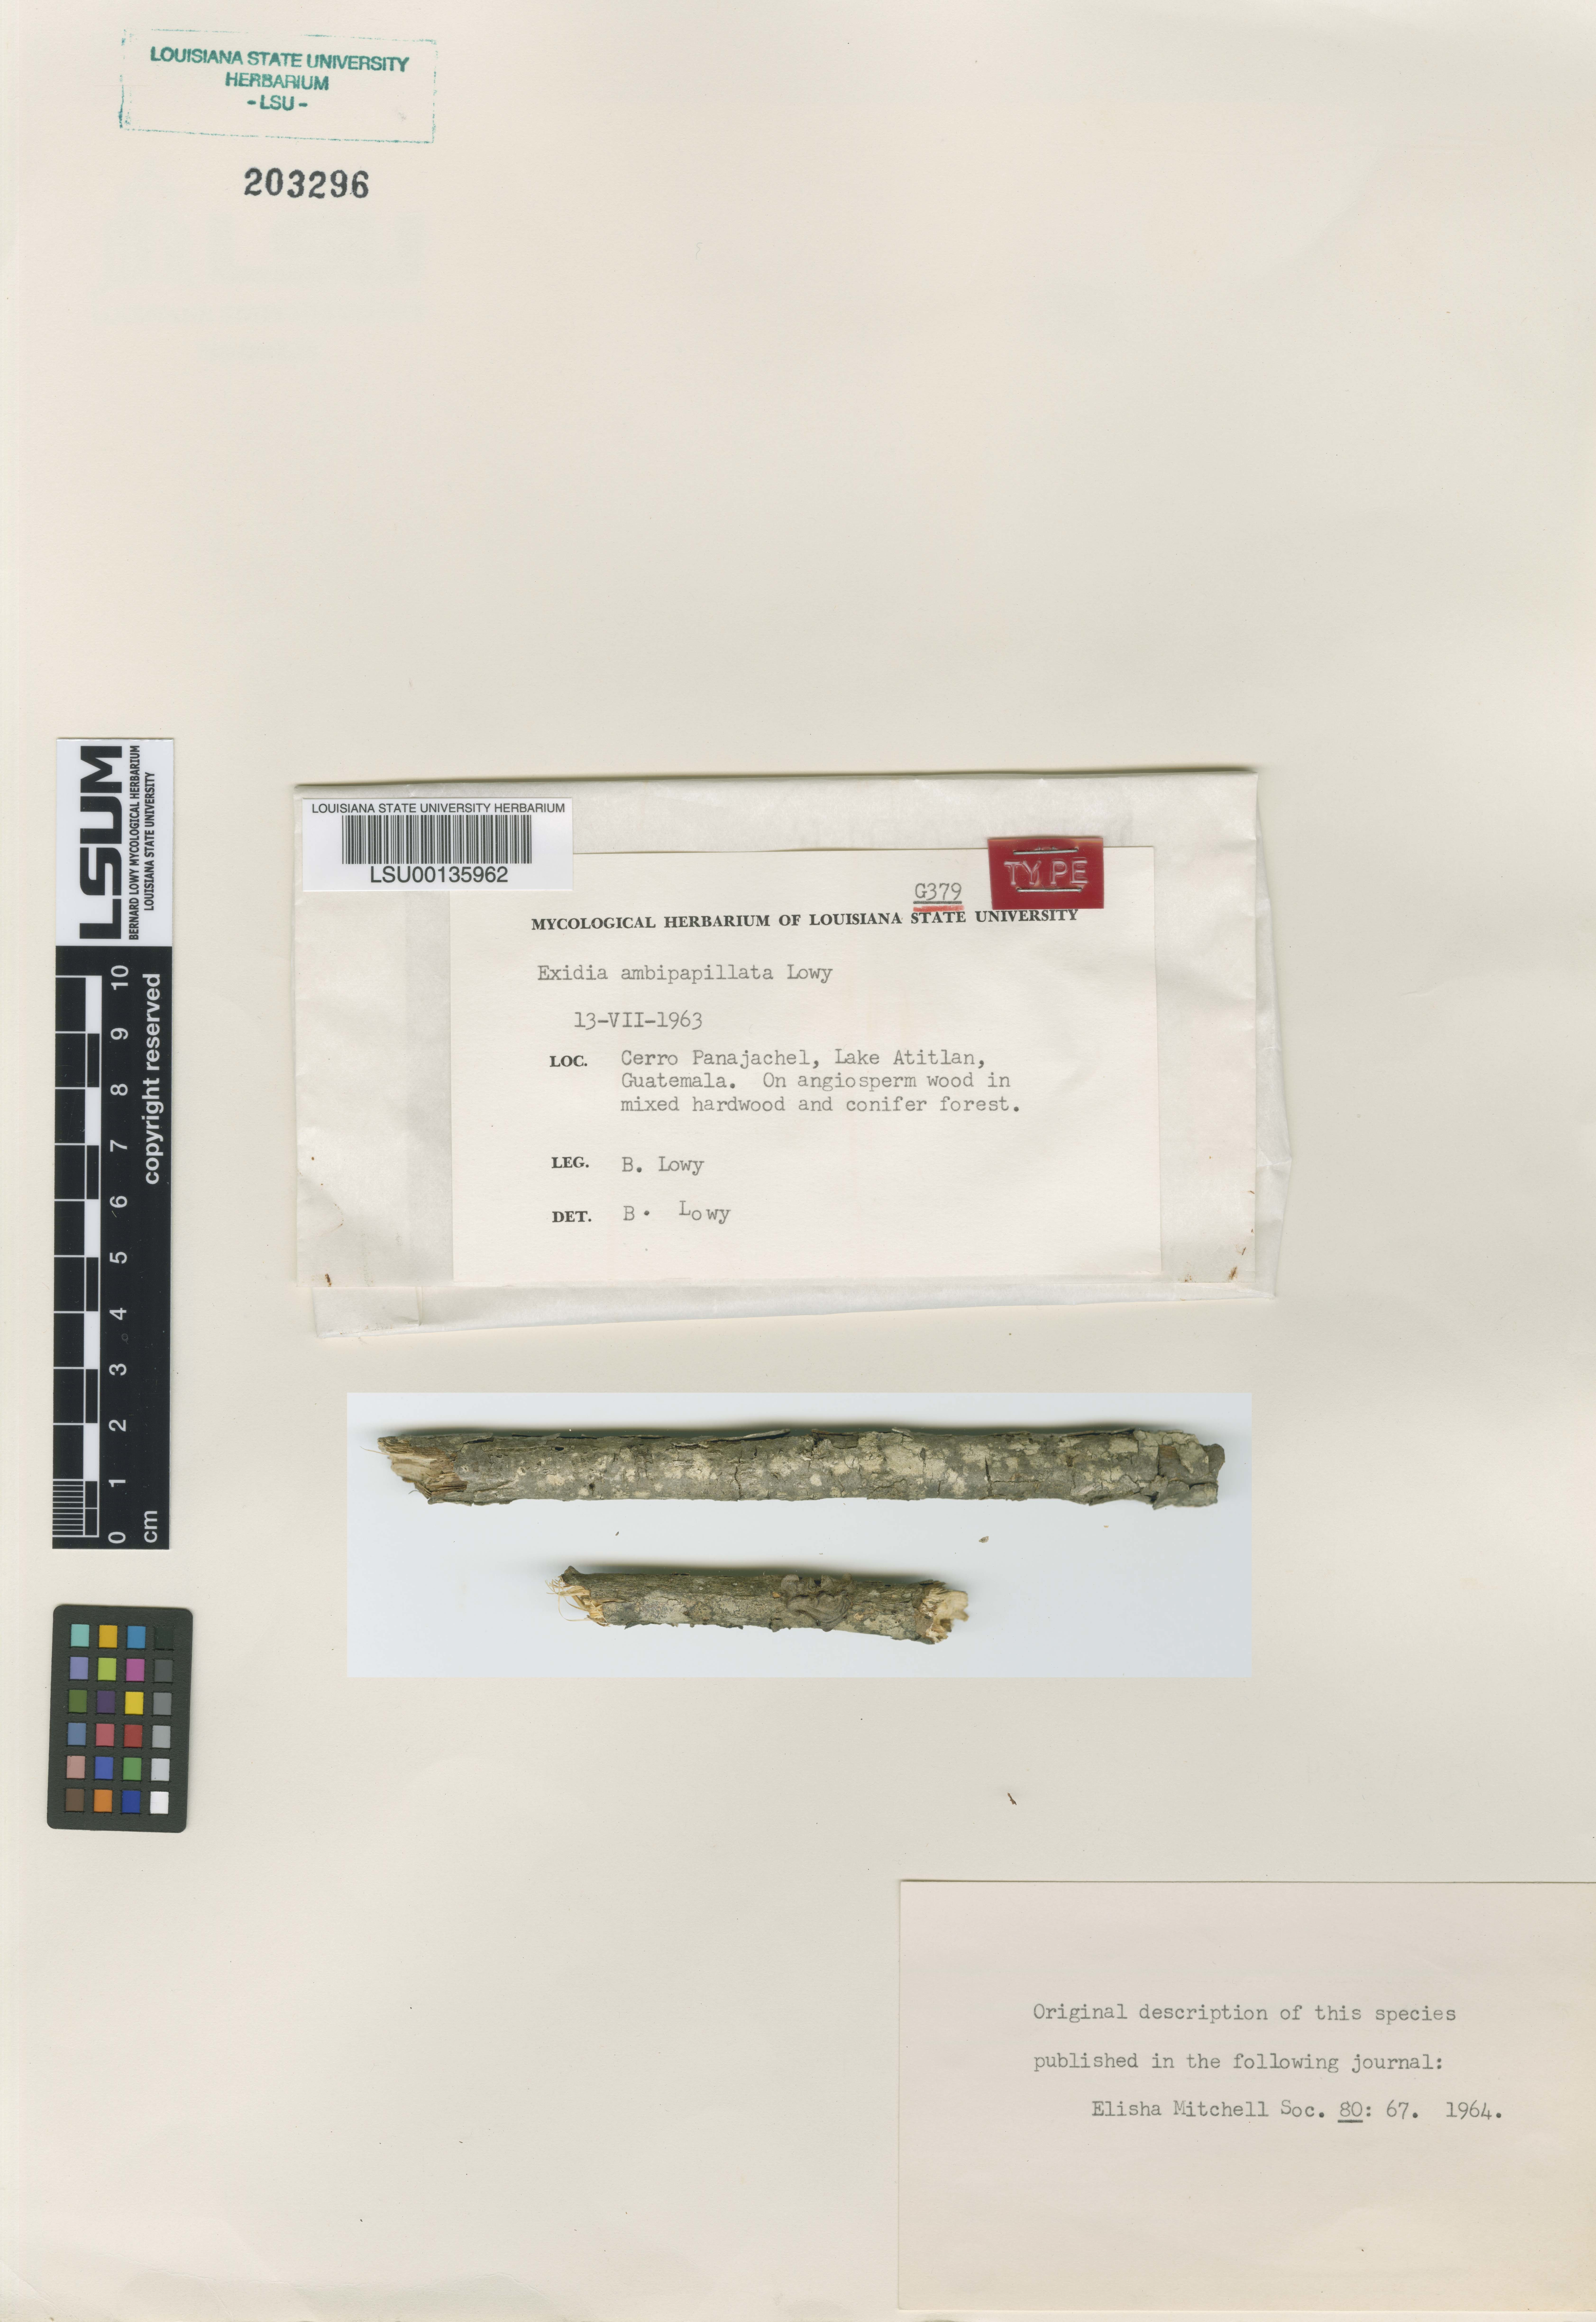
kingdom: Fungi
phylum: Basidiomycota
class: Agaricomycetes
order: Auriculariales
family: Auriculariaceae
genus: Exidia
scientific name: Exidia ambipapillata
